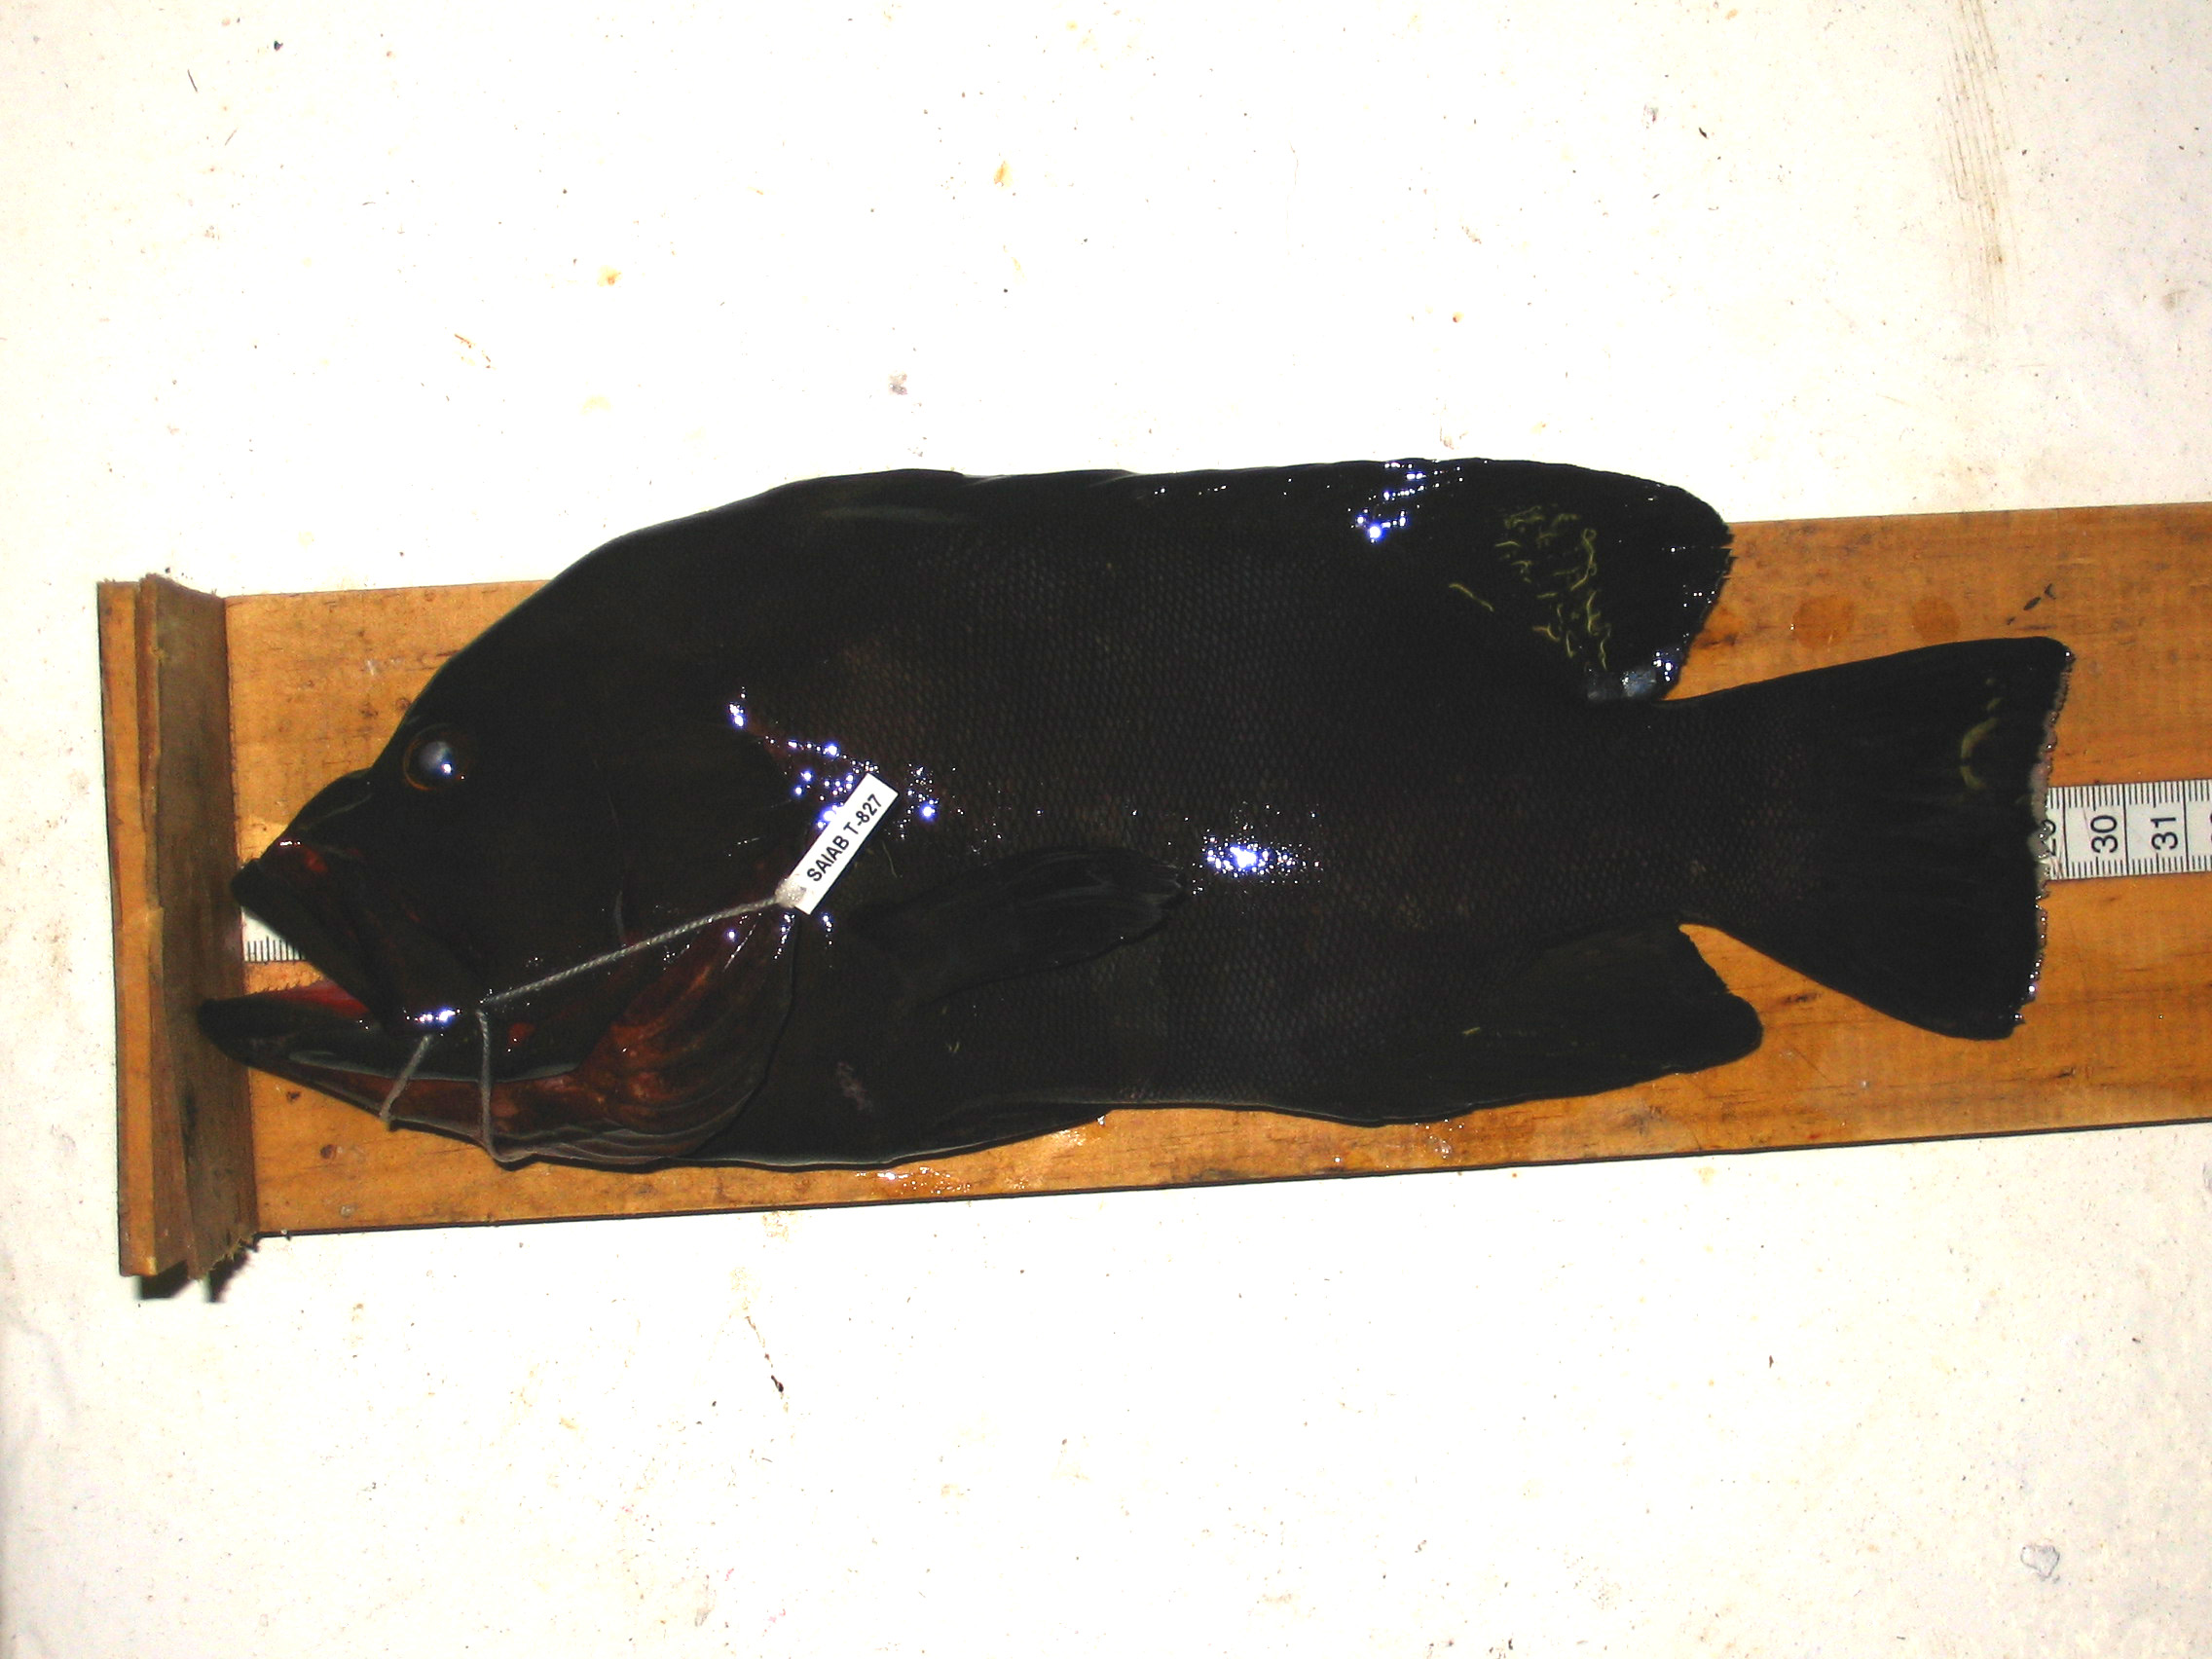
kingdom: Animalia
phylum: Chordata
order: Perciformes
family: Serranidae
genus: Aethaloperca
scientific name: Aethaloperca rogaa
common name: Redmouth grouper
